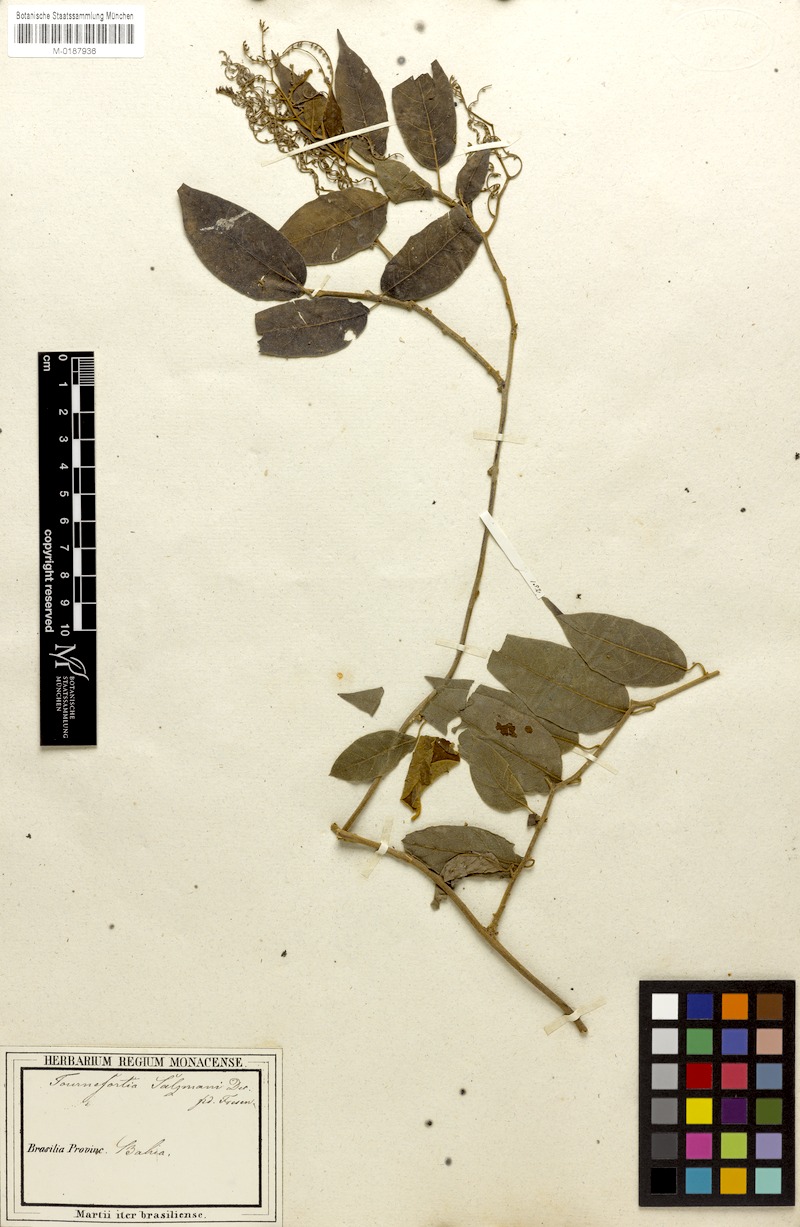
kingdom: Plantae
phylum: Tracheophyta
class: Magnoliopsida
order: Boraginales
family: Heliotropiaceae
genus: Myriopus
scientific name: Myriopus salzmannii
